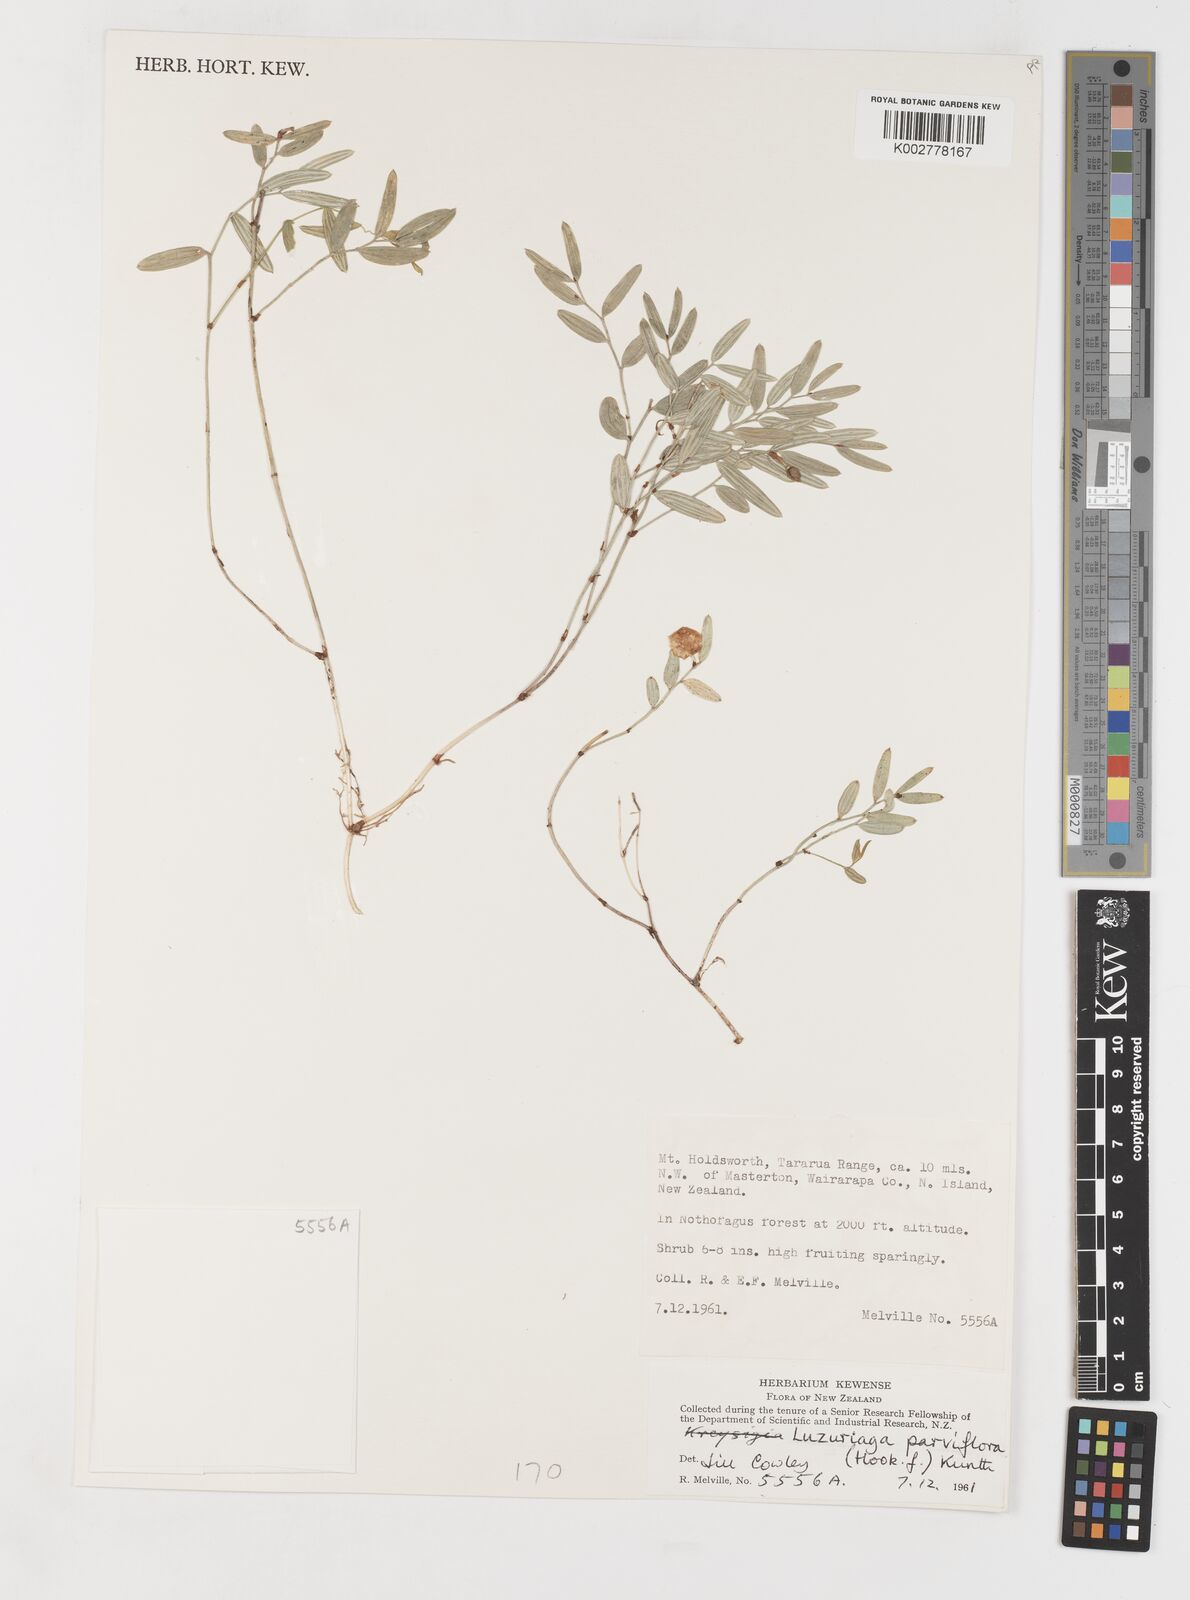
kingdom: Plantae
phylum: Tracheophyta
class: Liliopsida
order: Liliales
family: Alstroemeriaceae
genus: Luzuriaga
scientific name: Luzuriaga parviflora
